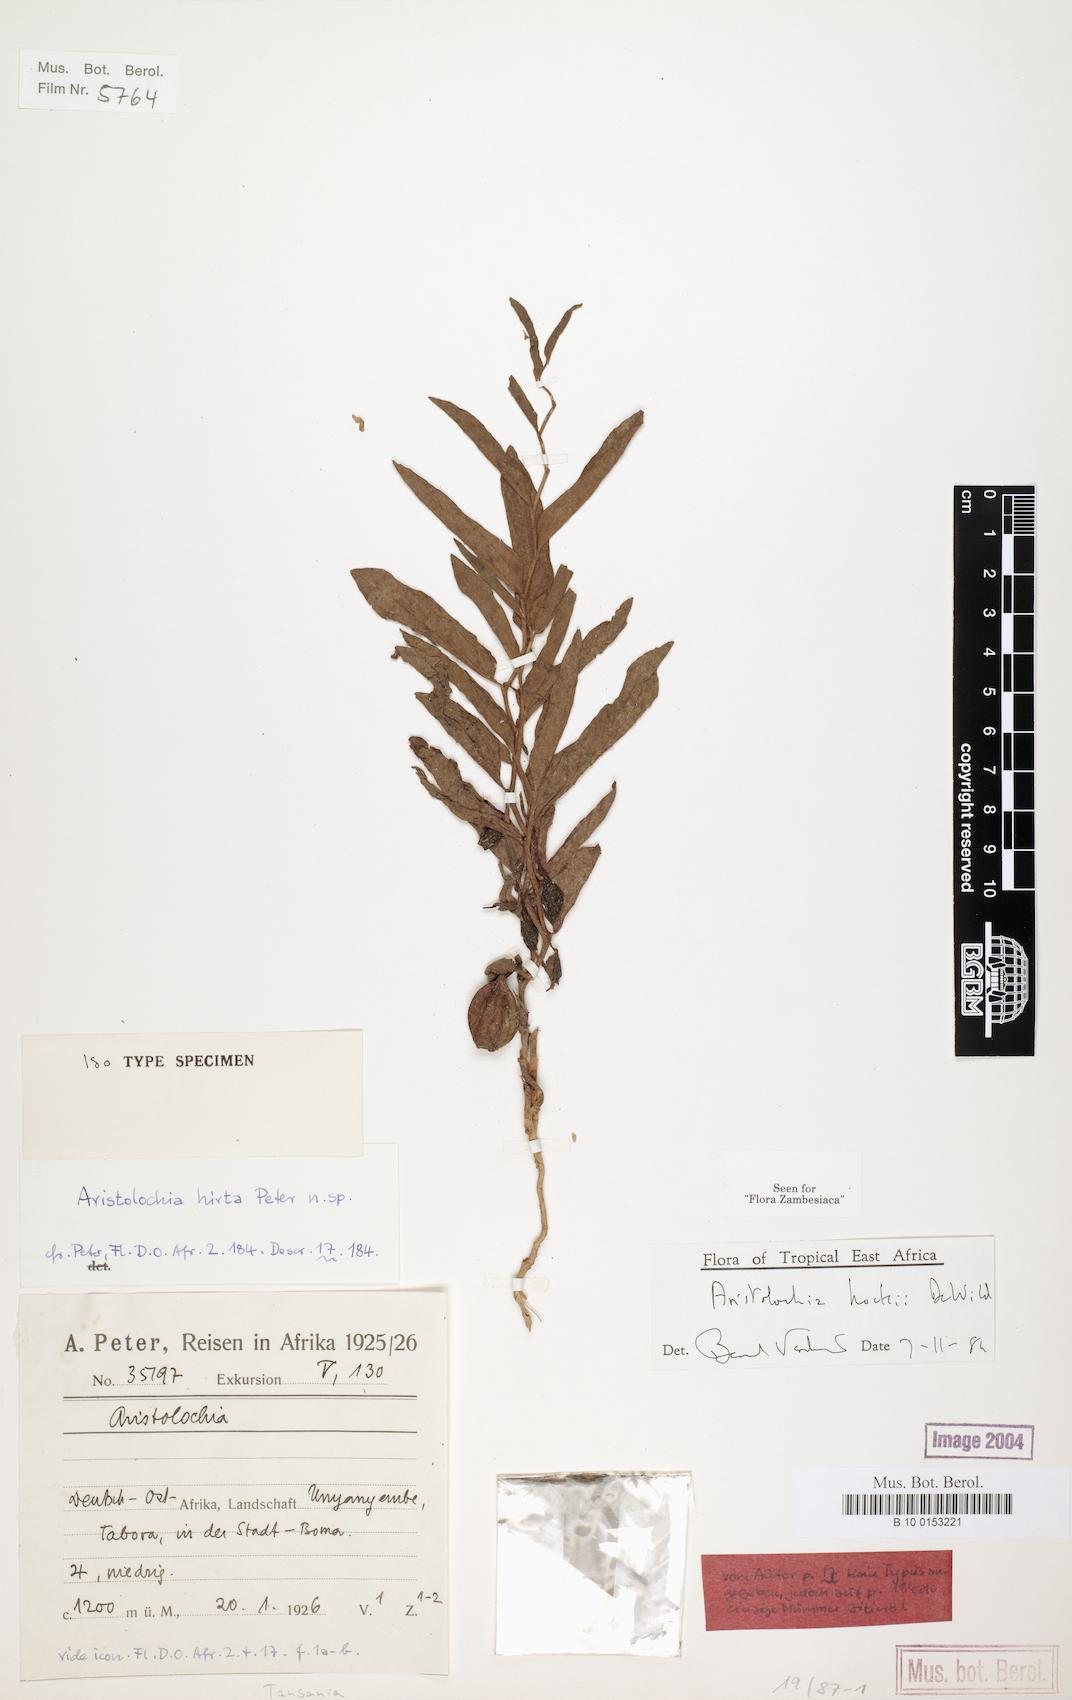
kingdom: Plantae
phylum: Tracheophyta
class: Magnoliopsida
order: Piperales
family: Aristolochiaceae
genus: Aristolochia
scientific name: Aristolochia hockii
